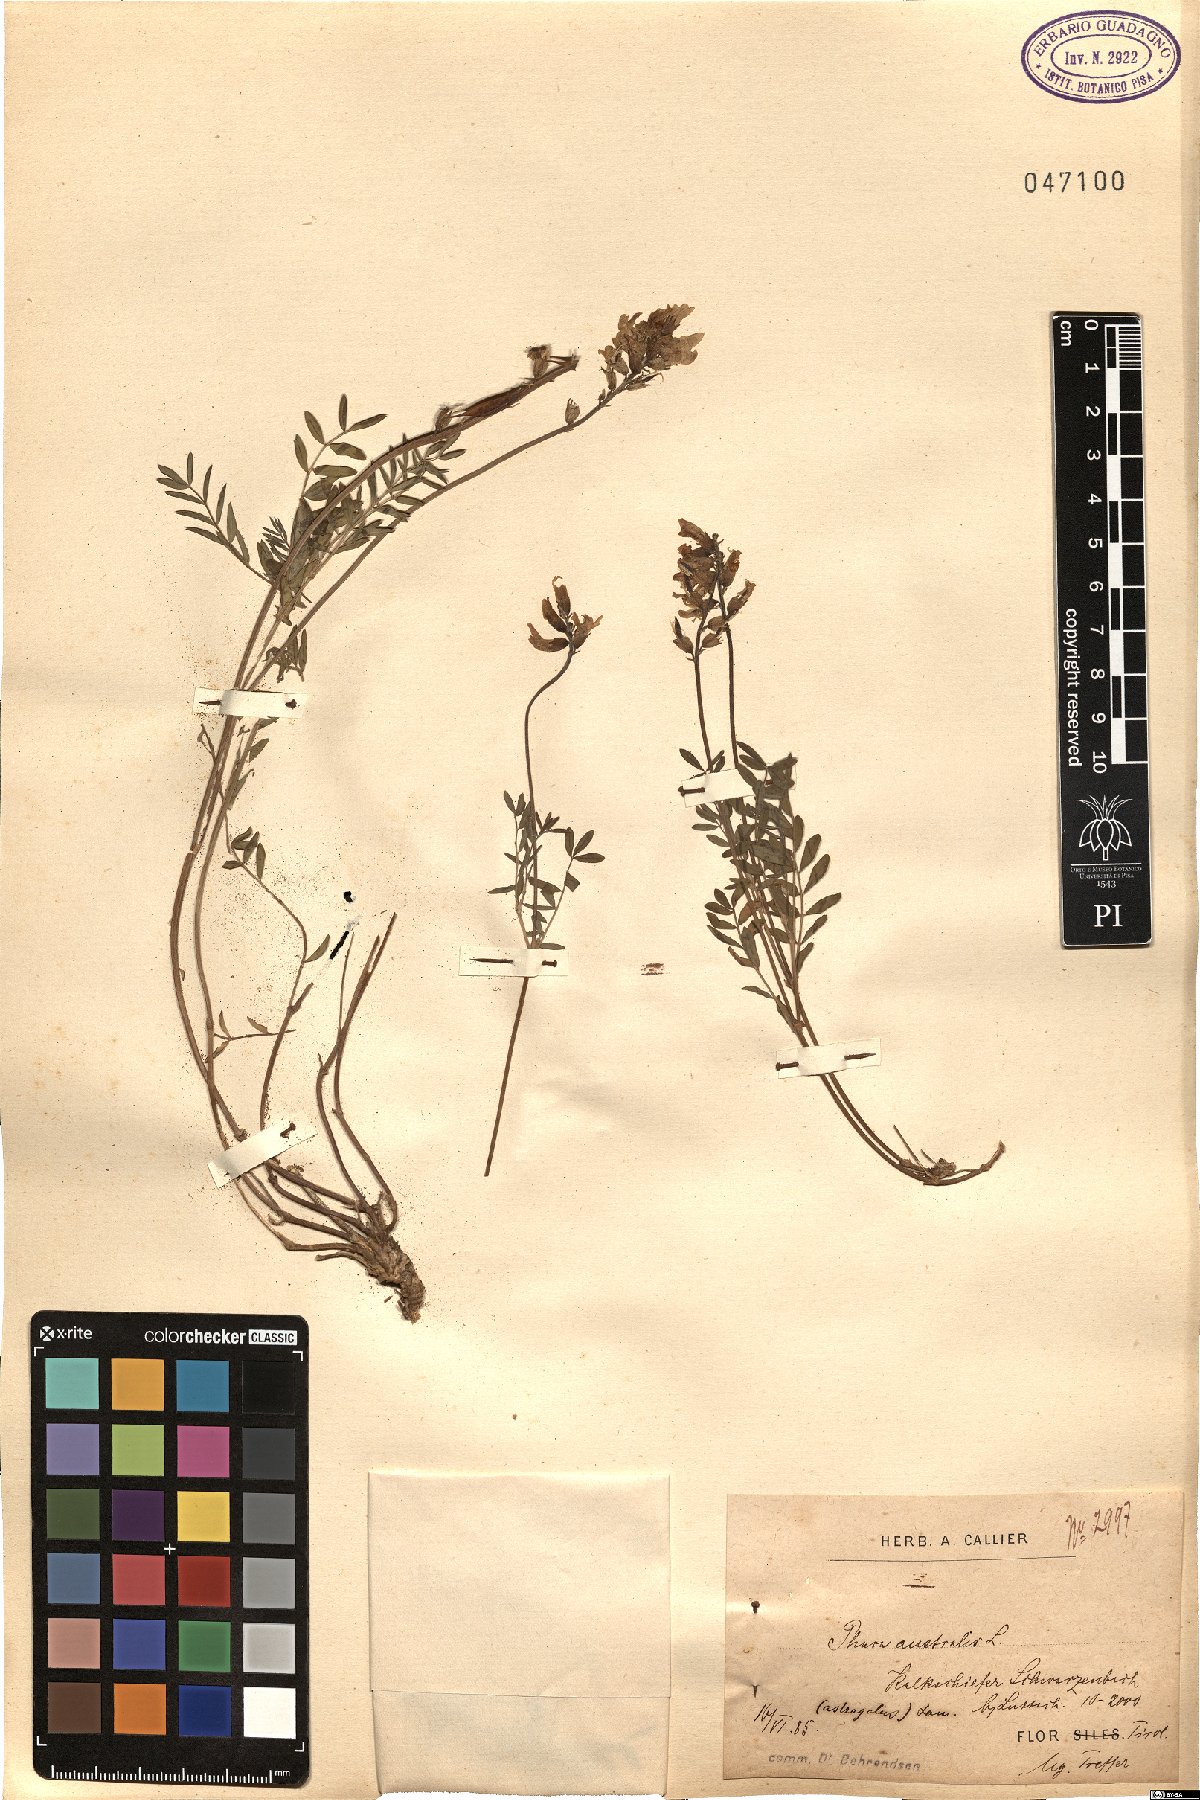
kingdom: Plantae
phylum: Tracheophyta
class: Magnoliopsida
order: Fabales
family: Fabaceae
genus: Astragalus
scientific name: Astragalus australis
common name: Indian milk-vetch
